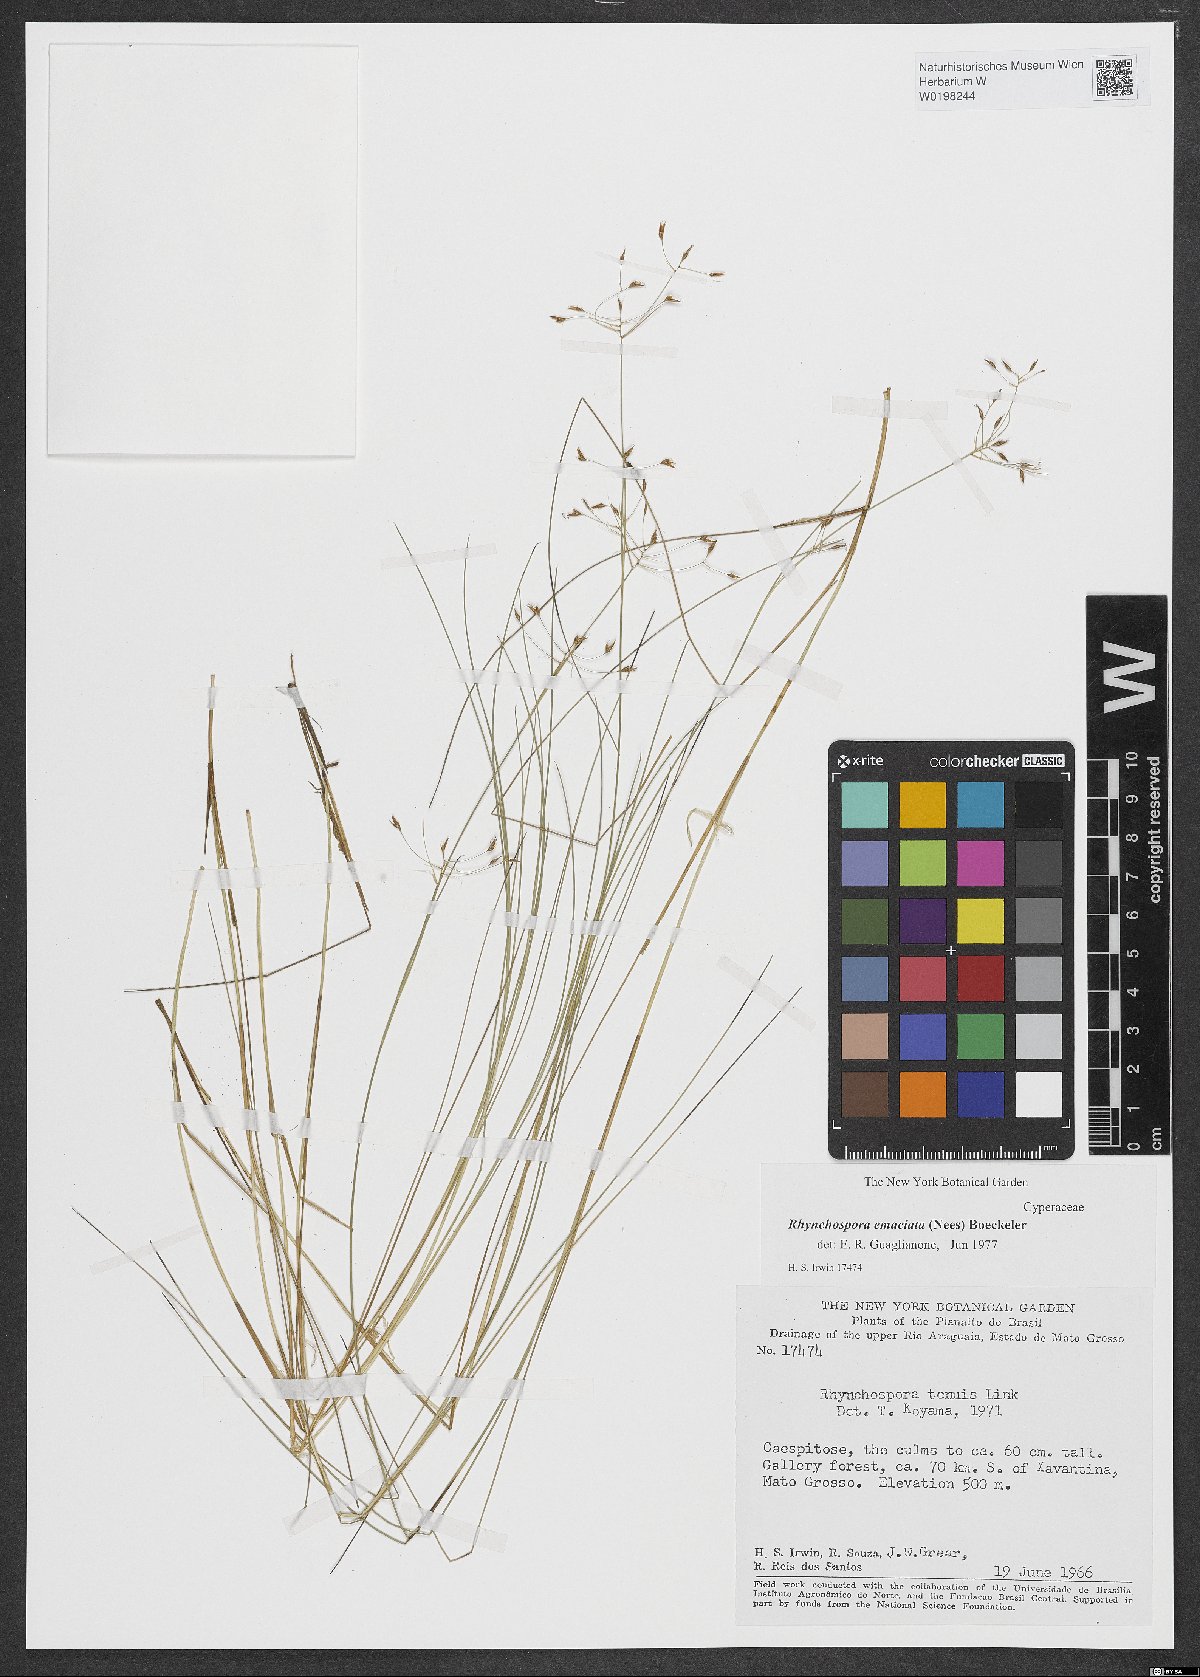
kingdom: Plantae
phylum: Tracheophyta
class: Liliopsida
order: Poales
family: Cyperaceae
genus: Rhynchospora
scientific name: Rhynchospora emaciata
